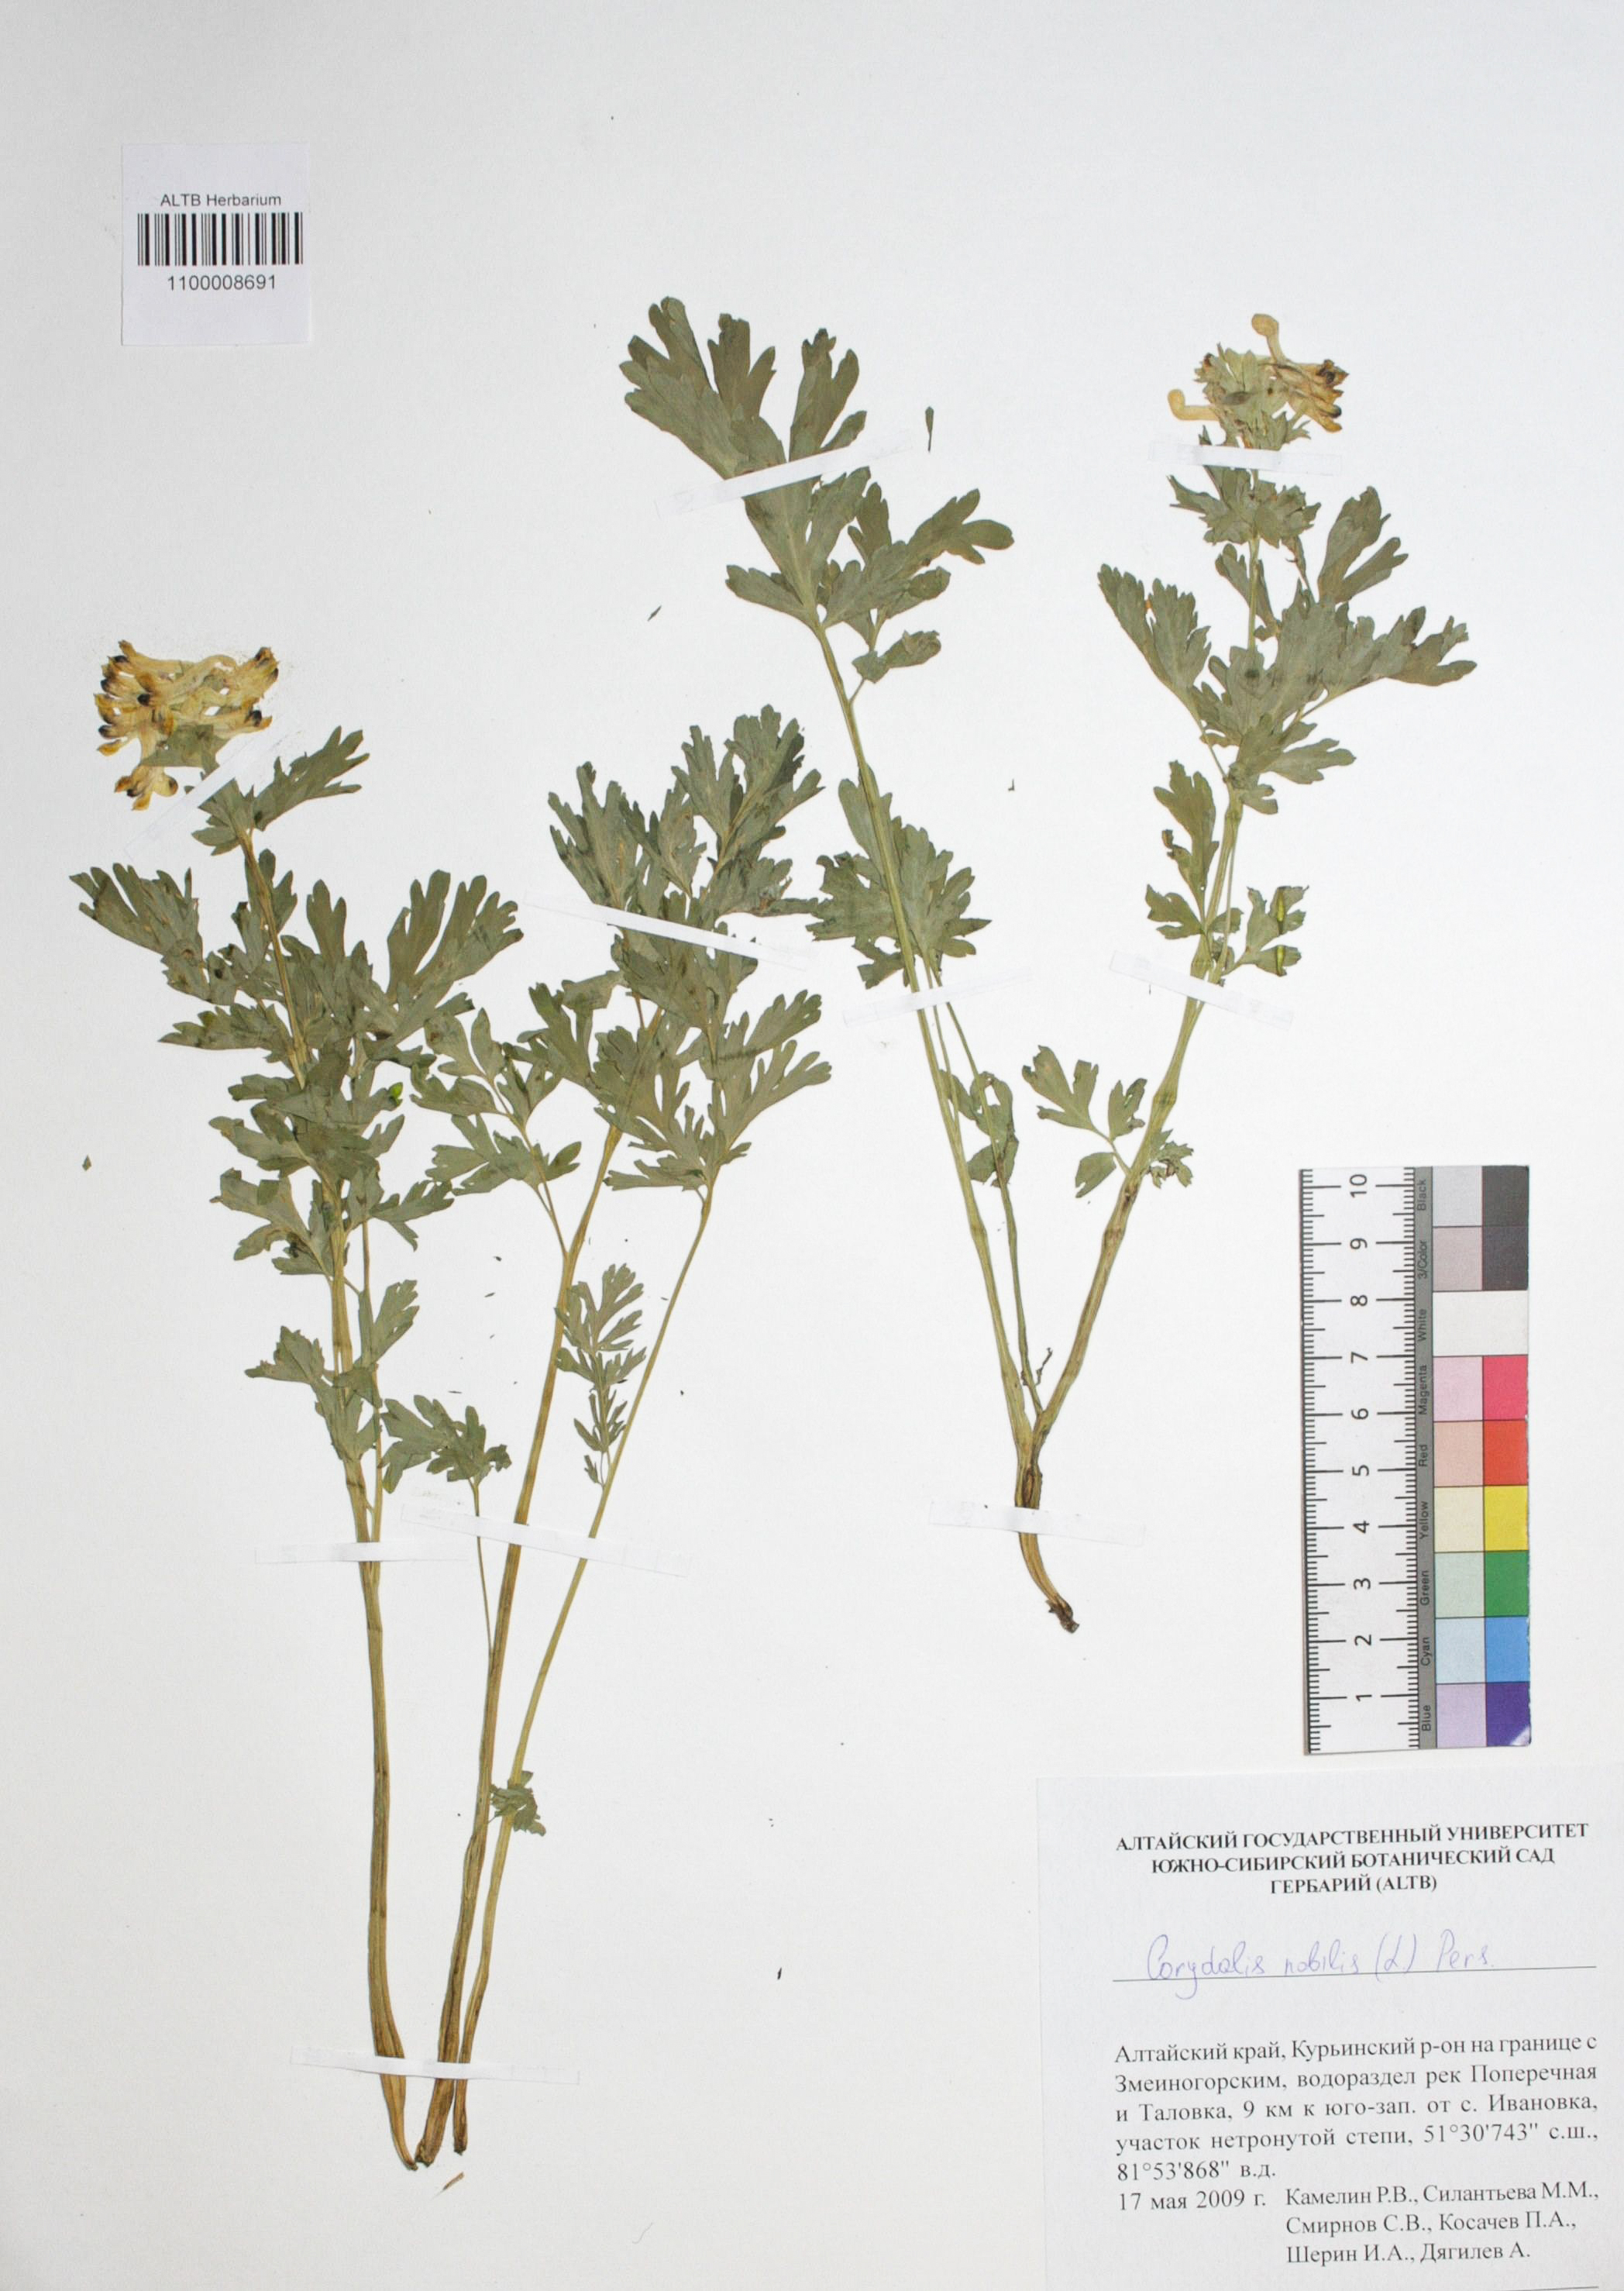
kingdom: Plantae
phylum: Tracheophyta
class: Magnoliopsida
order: Ranunculales
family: Papaveraceae
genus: Corydalis
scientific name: Corydalis nobilis
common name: Siberian corydalis
